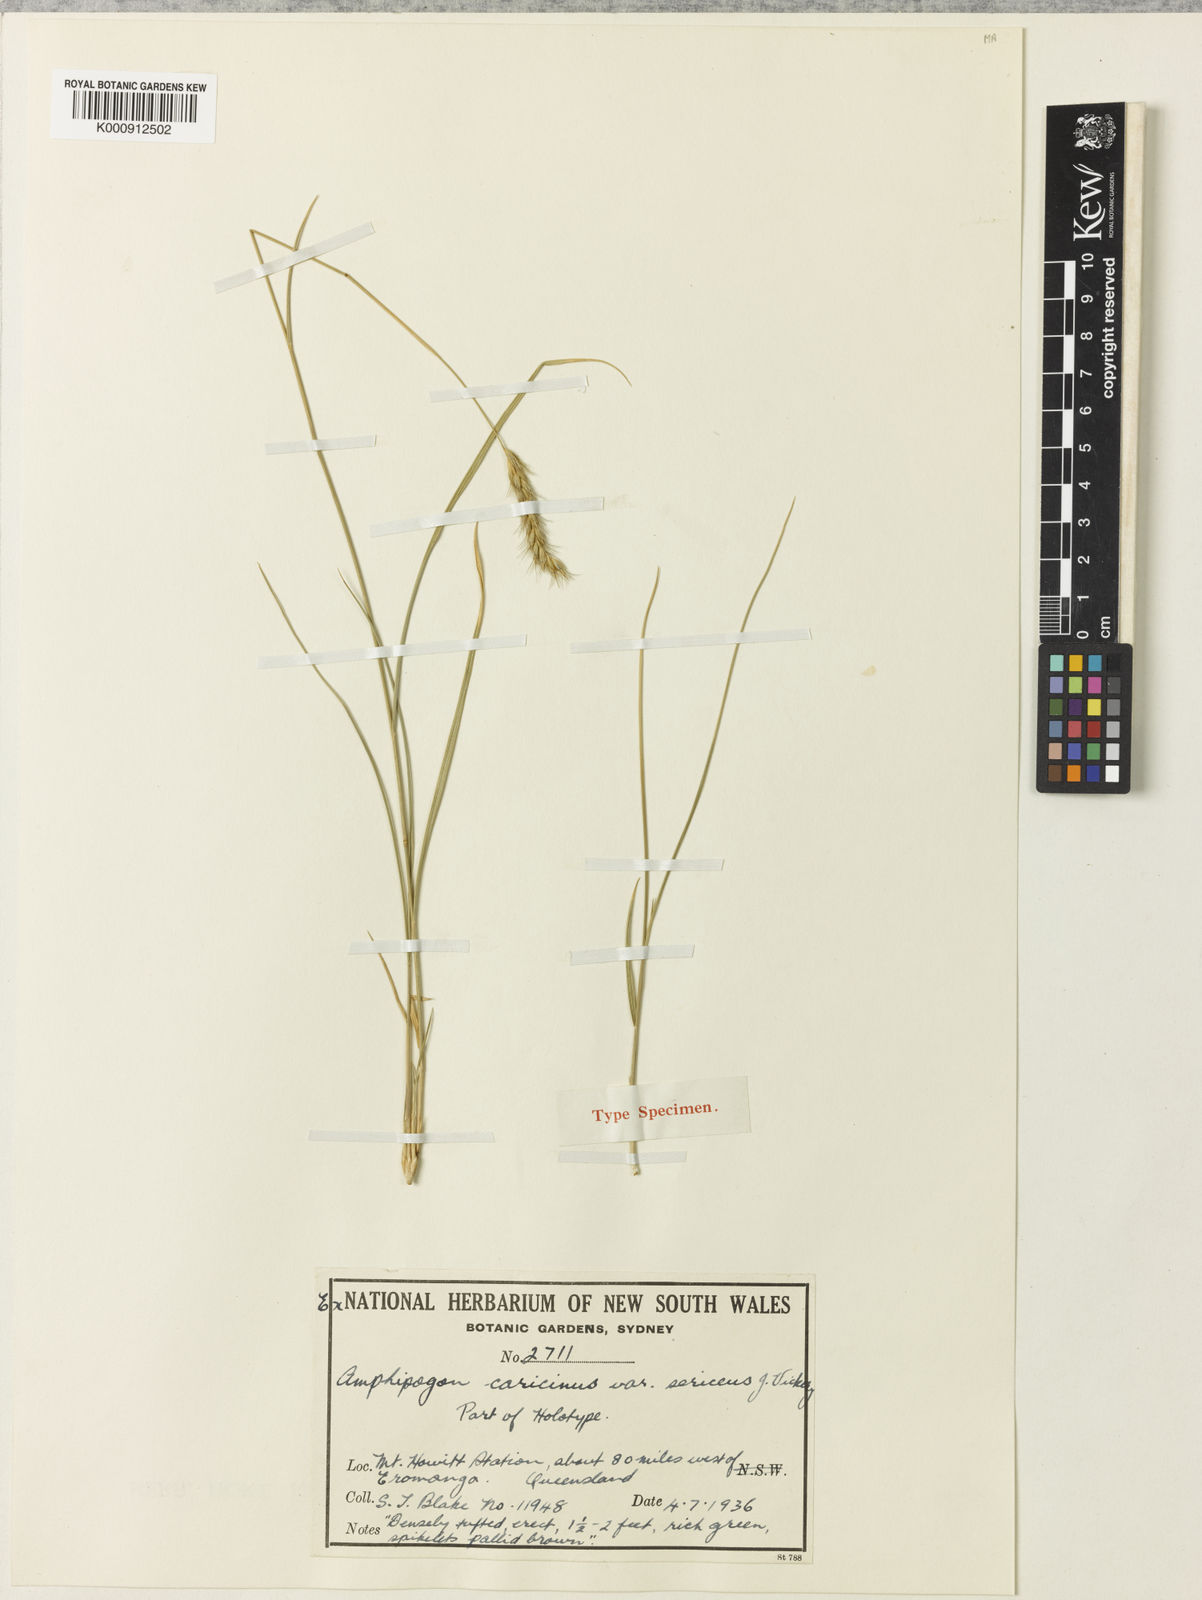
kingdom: Plantae
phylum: Tracheophyta
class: Liliopsida
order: Poales
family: Poaceae
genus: Amphipogon
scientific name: Amphipogon sericeus
